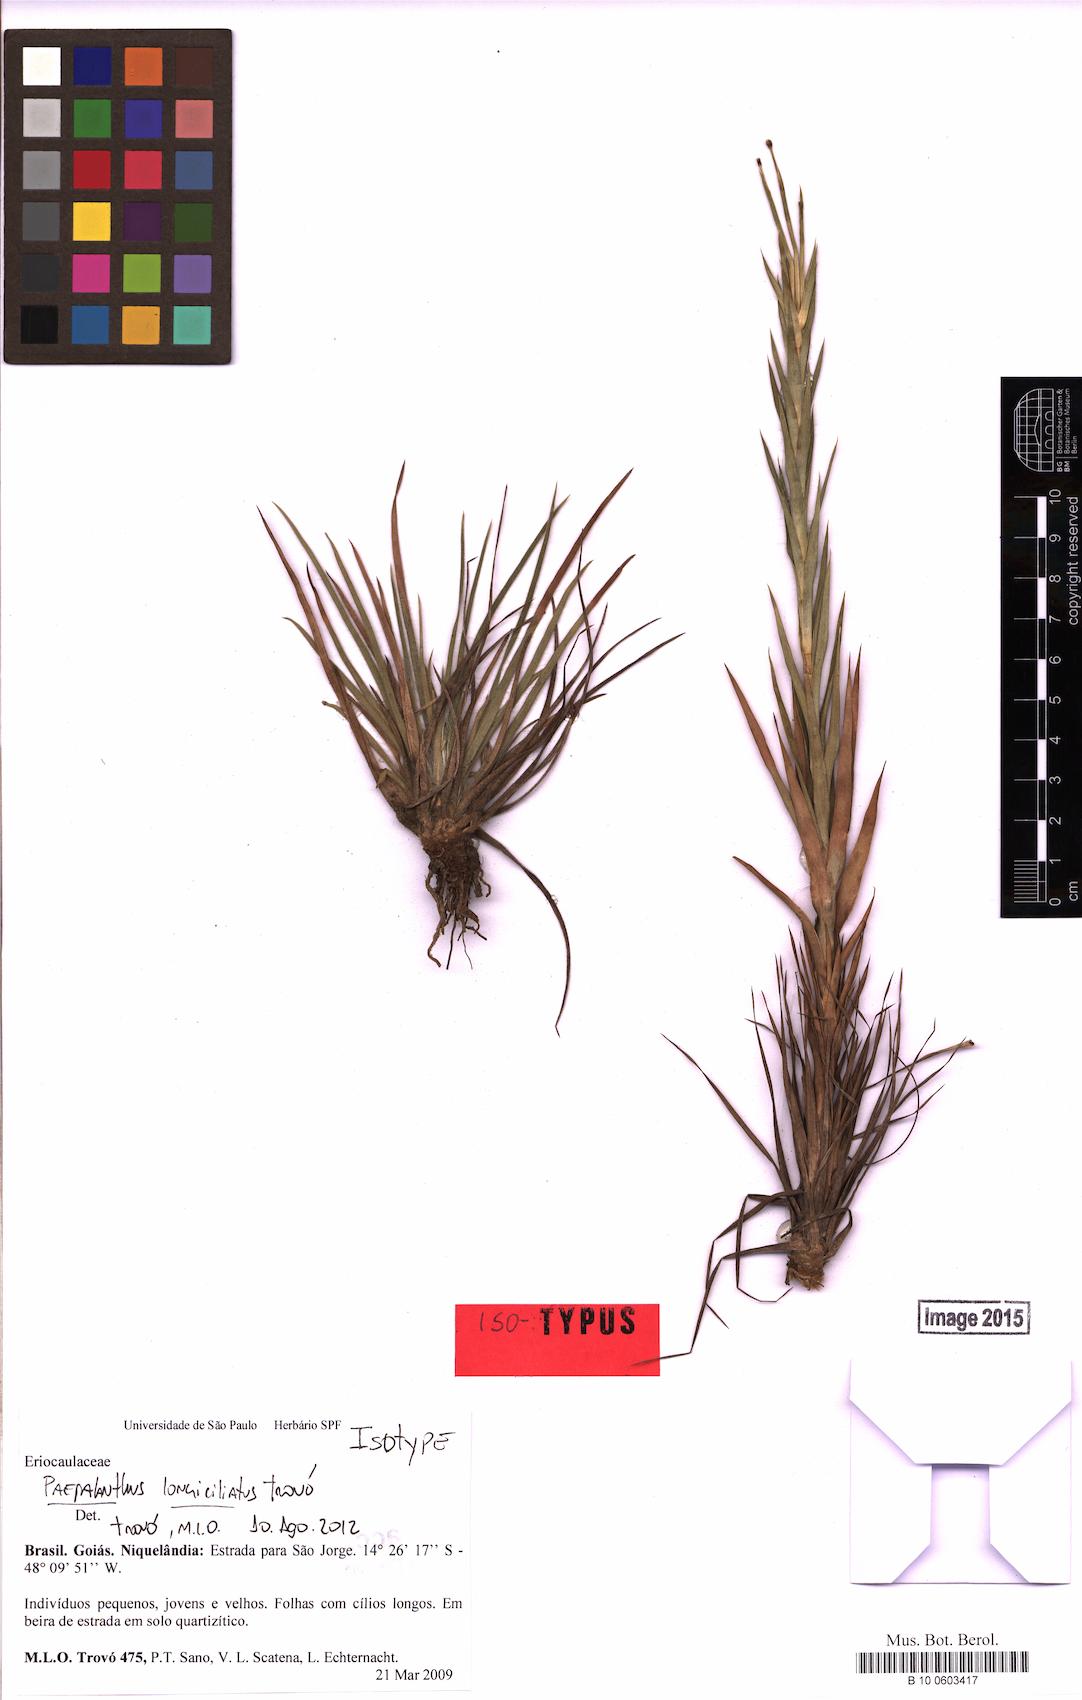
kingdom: Plantae
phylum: Tracheophyta
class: Liliopsida
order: Poales
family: Eriocaulaceae
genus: Paepalanthus
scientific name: Paepalanthus longiciliatus
